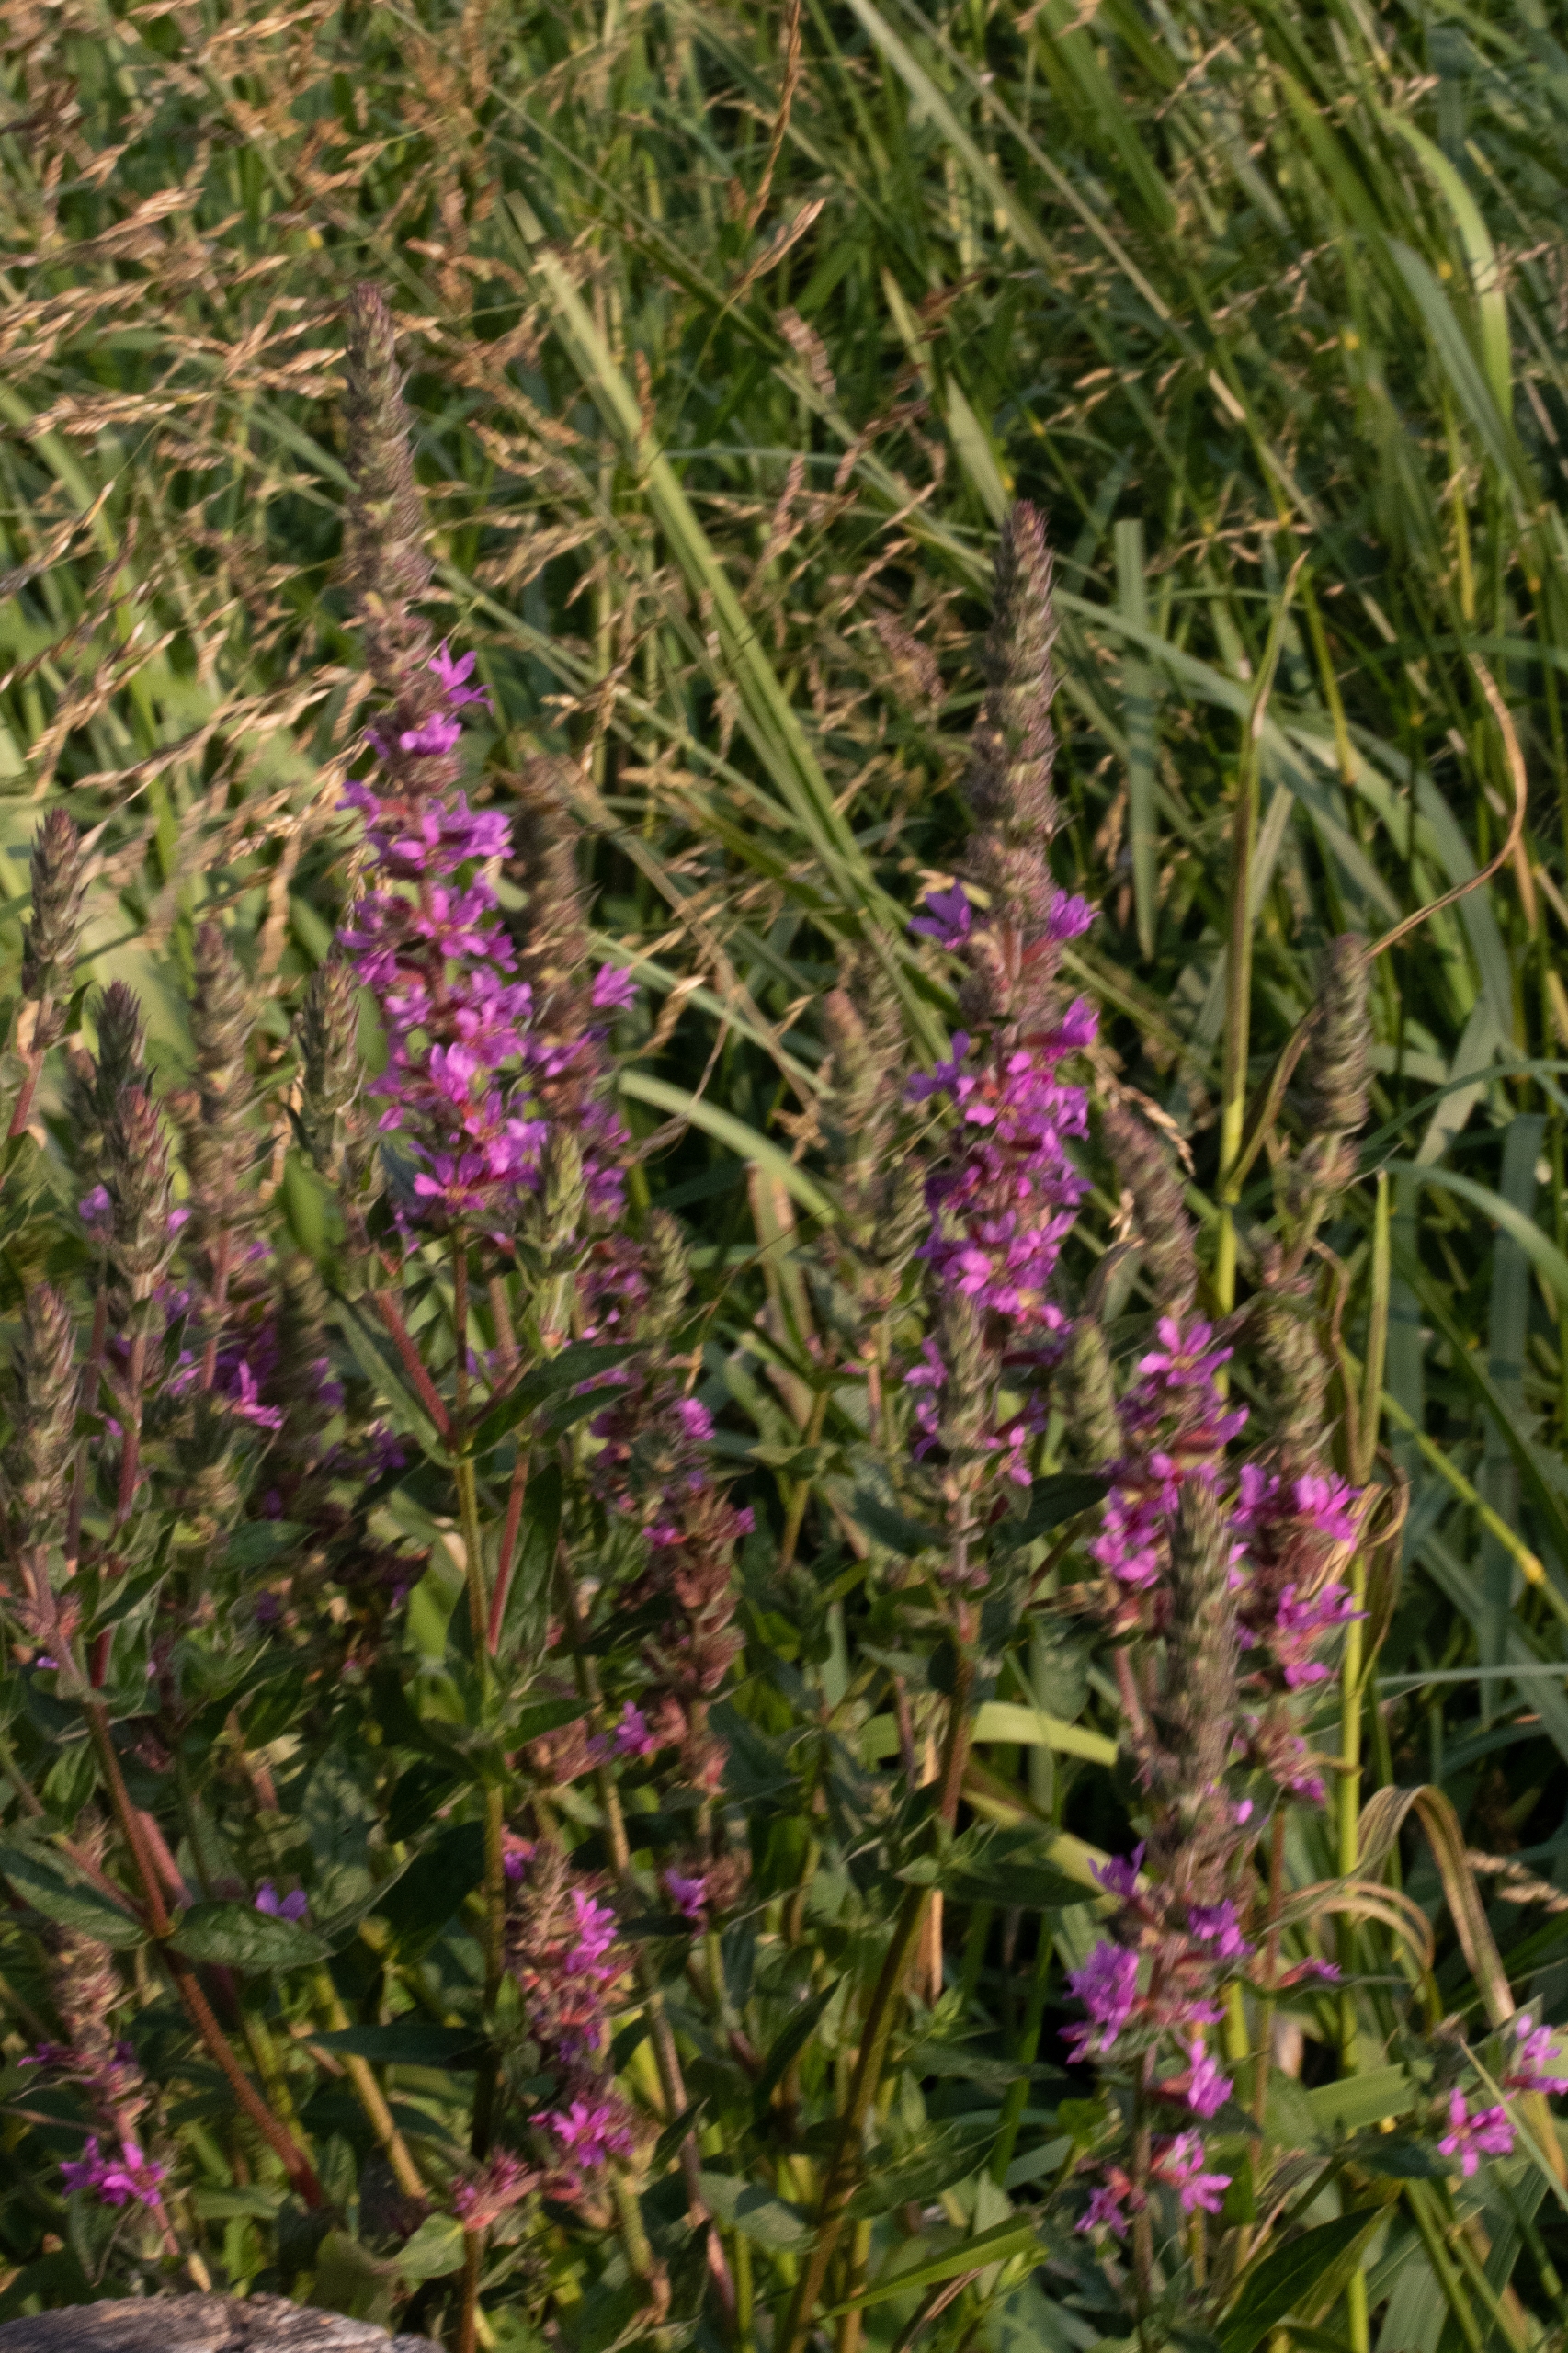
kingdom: Plantae
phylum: Tracheophyta
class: Magnoliopsida
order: Myrtales
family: Lythraceae
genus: Lythrum
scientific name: Lythrum salicaria
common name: Kattehale
